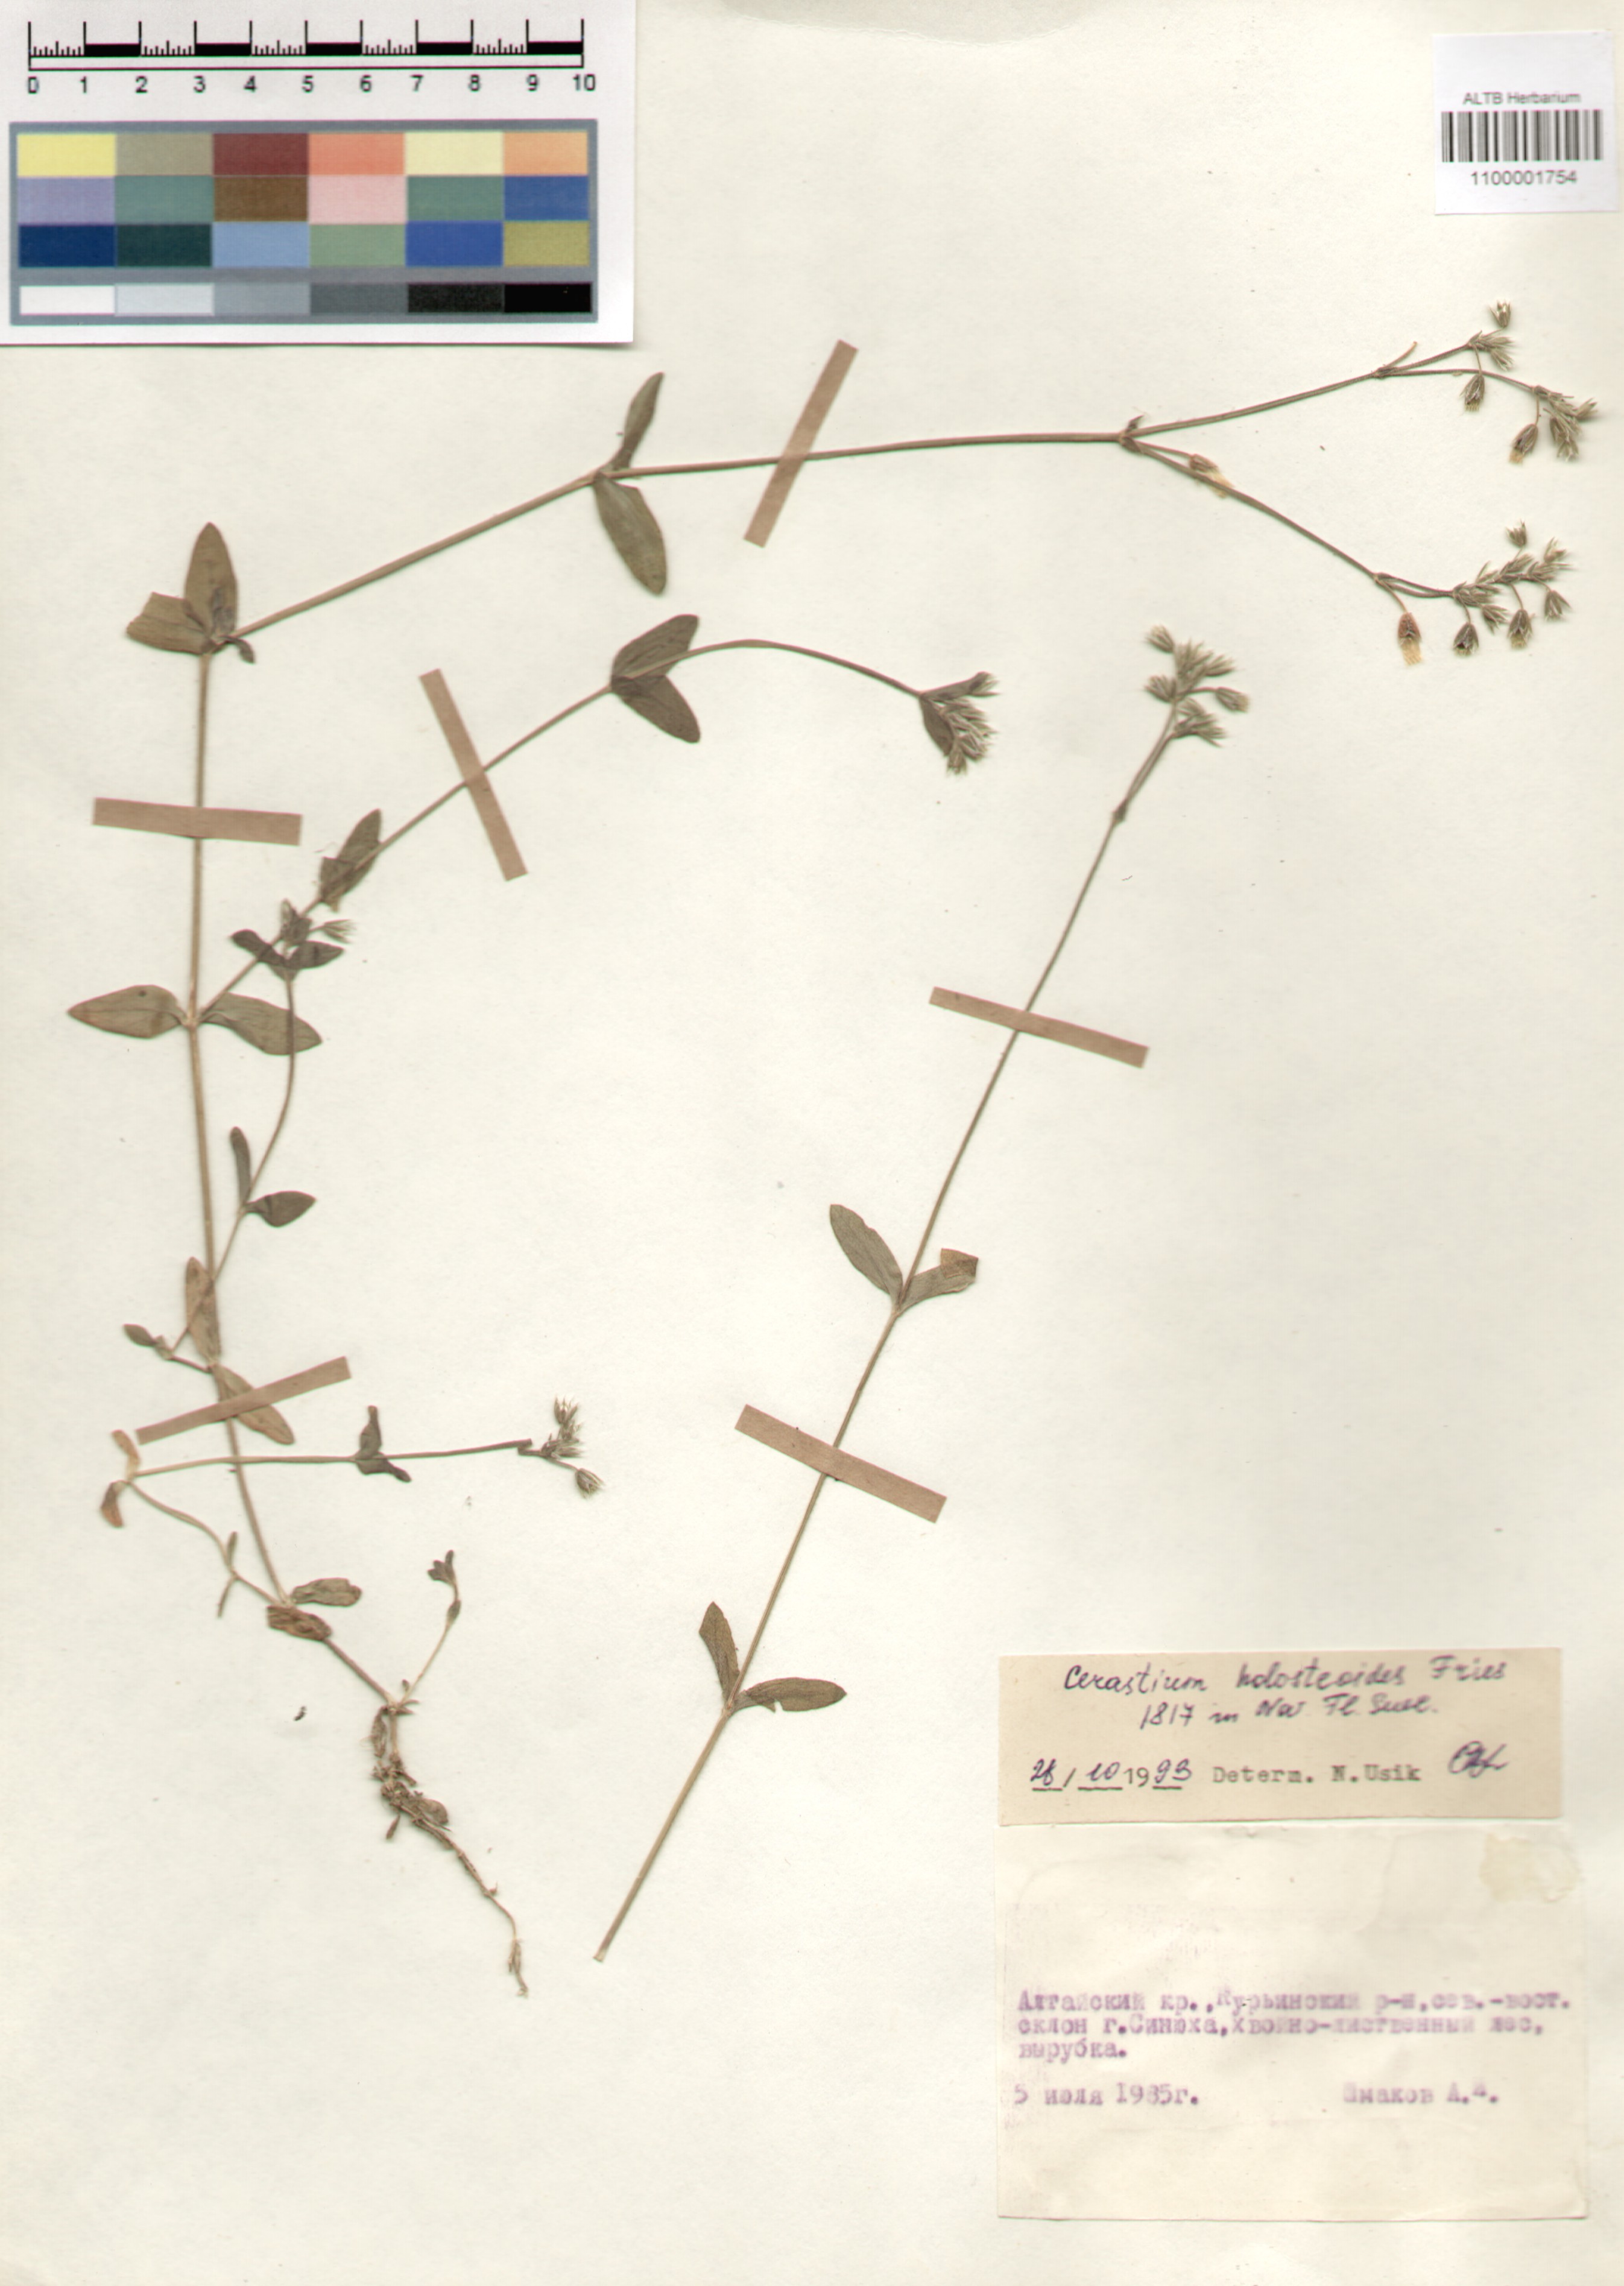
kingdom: Plantae
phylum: Tracheophyta
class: Magnoliopsida
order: Caryophyllales
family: Caryophyllaceae
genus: Cerastium
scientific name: Cerastium holosteoides
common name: Big chickweed
